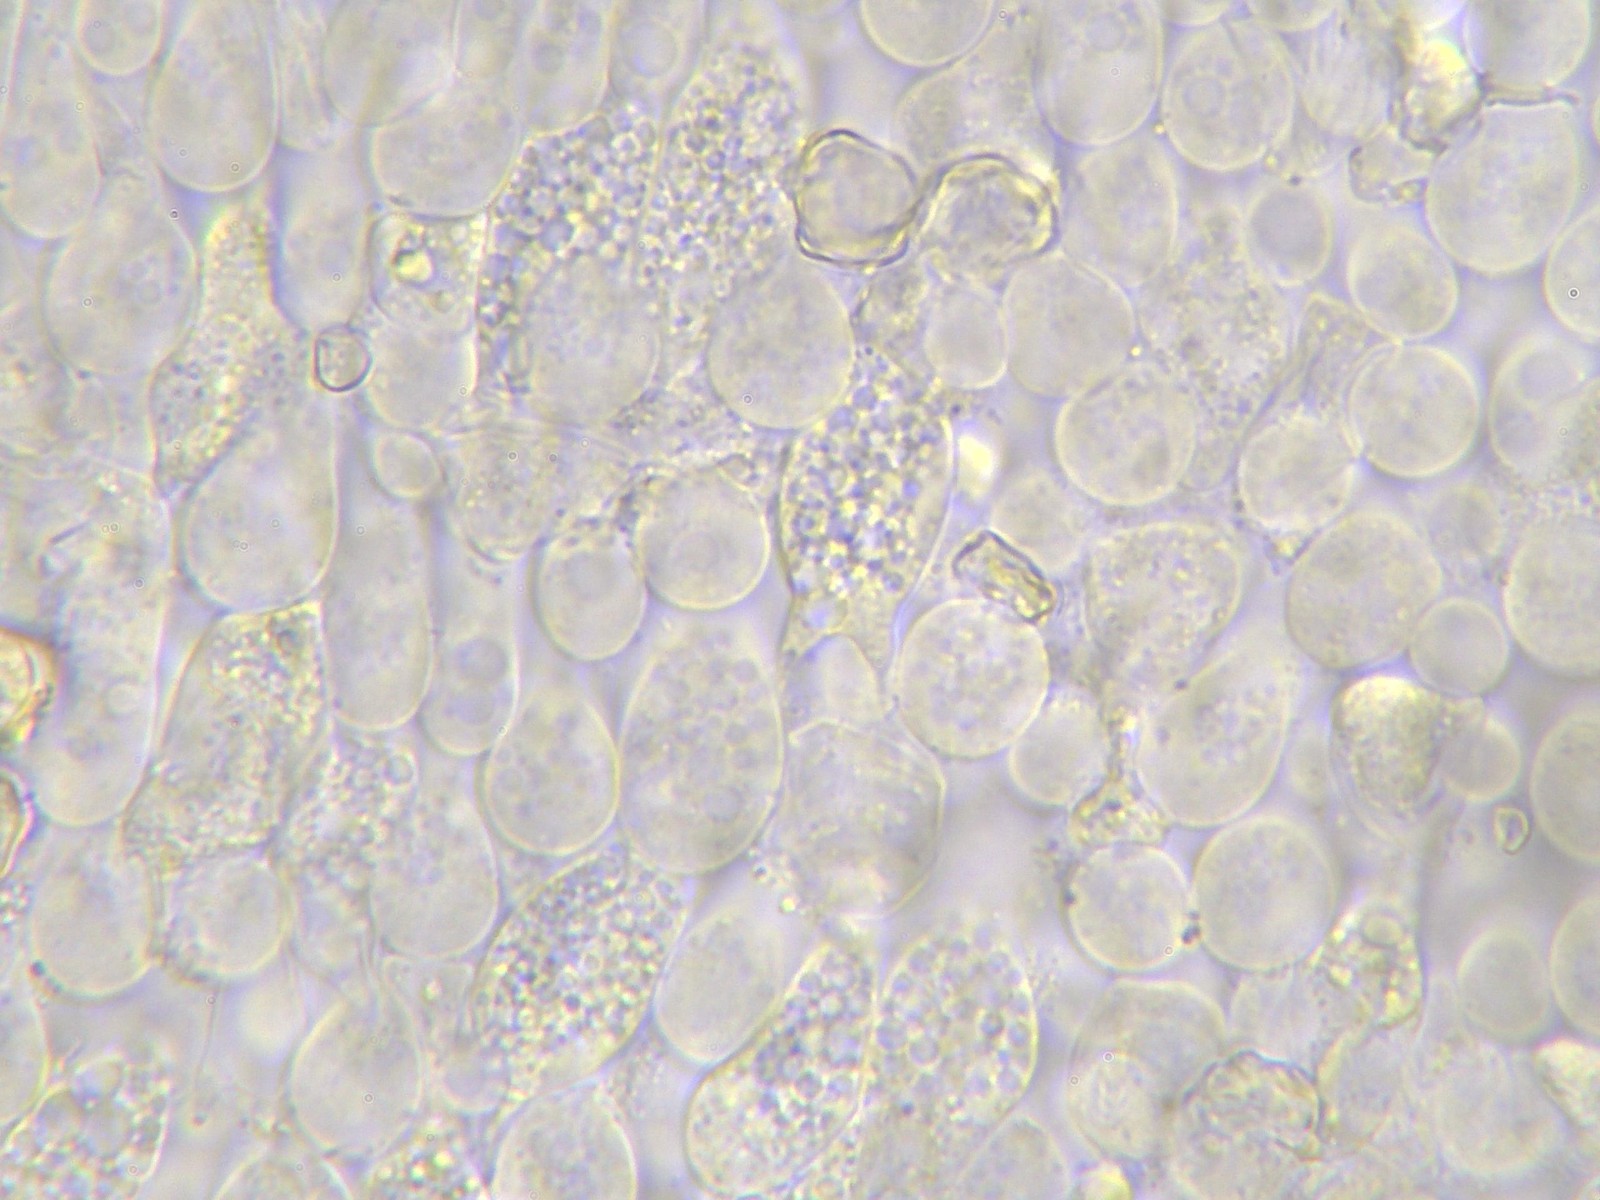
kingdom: Fungi
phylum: Basidiomycota
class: Agaricomycetes
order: Agaricales
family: Entolomataceae
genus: Entoloma
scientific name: Entoloma cetratum
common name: voks-rødblad
